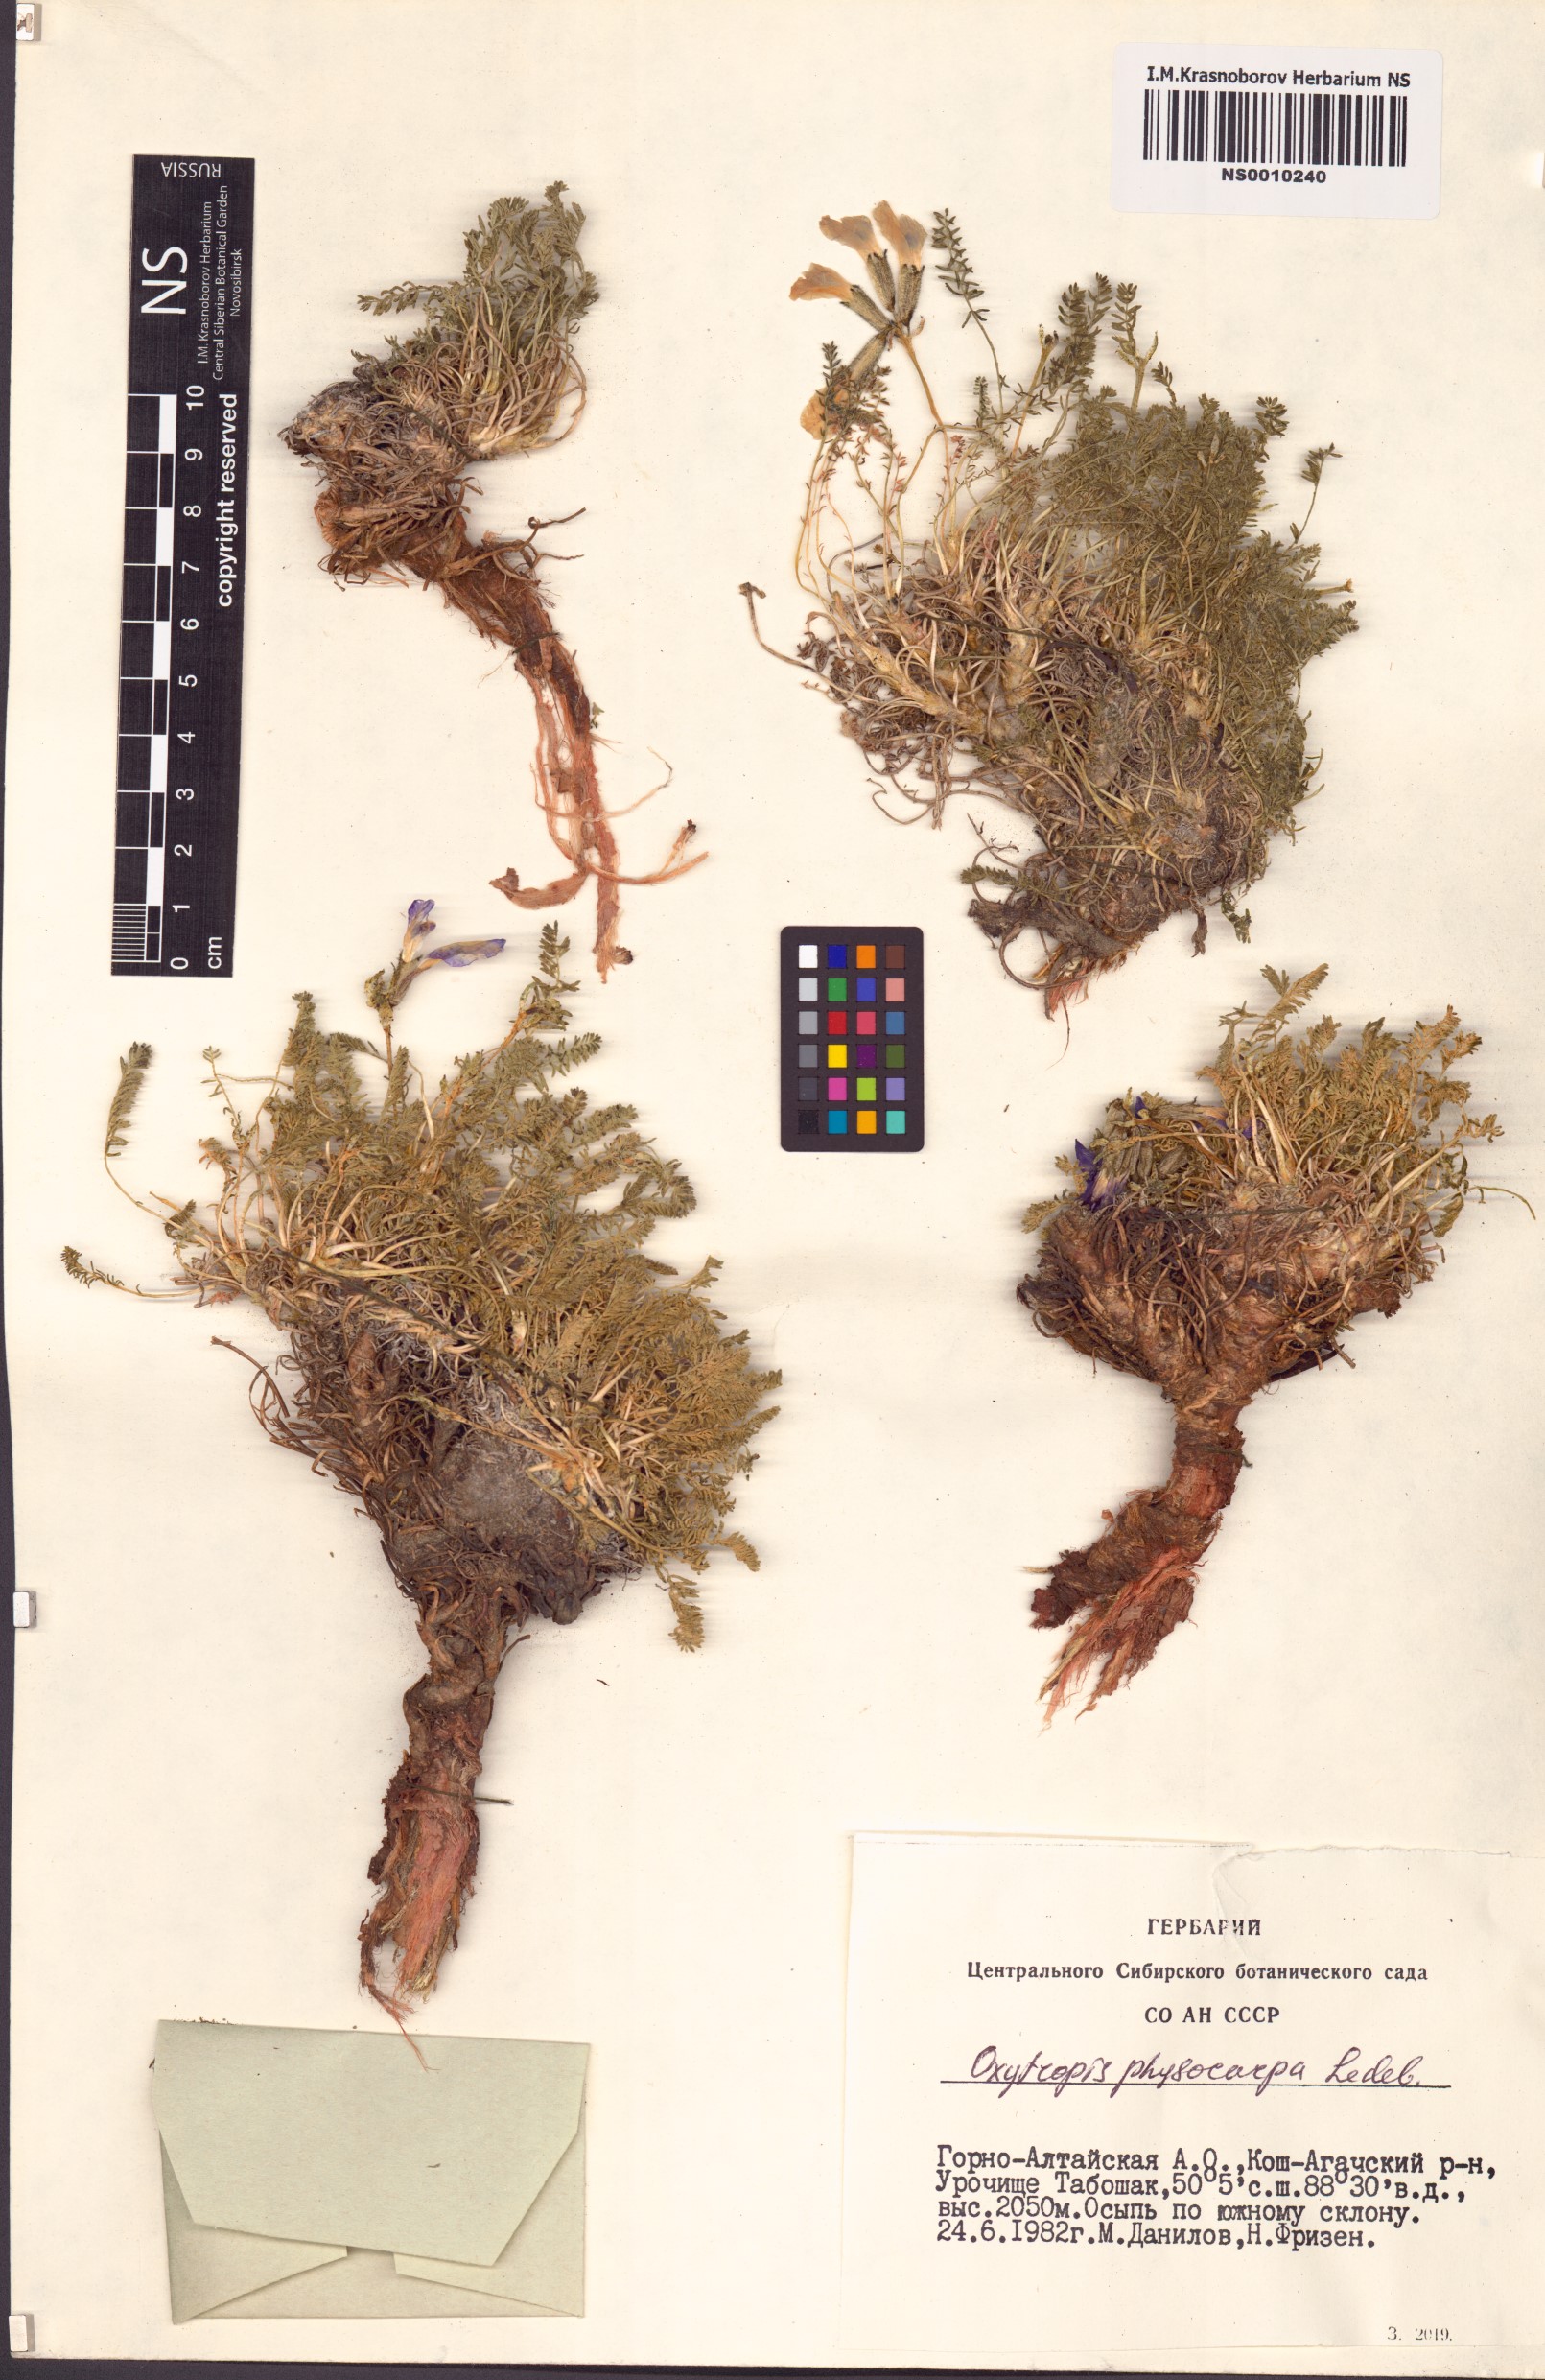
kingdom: Plantae
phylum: Tracheophyta
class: Magnoliopsida
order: Fabales
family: Fabaceae
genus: Oxytropis
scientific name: Oxytropis physocarpa
